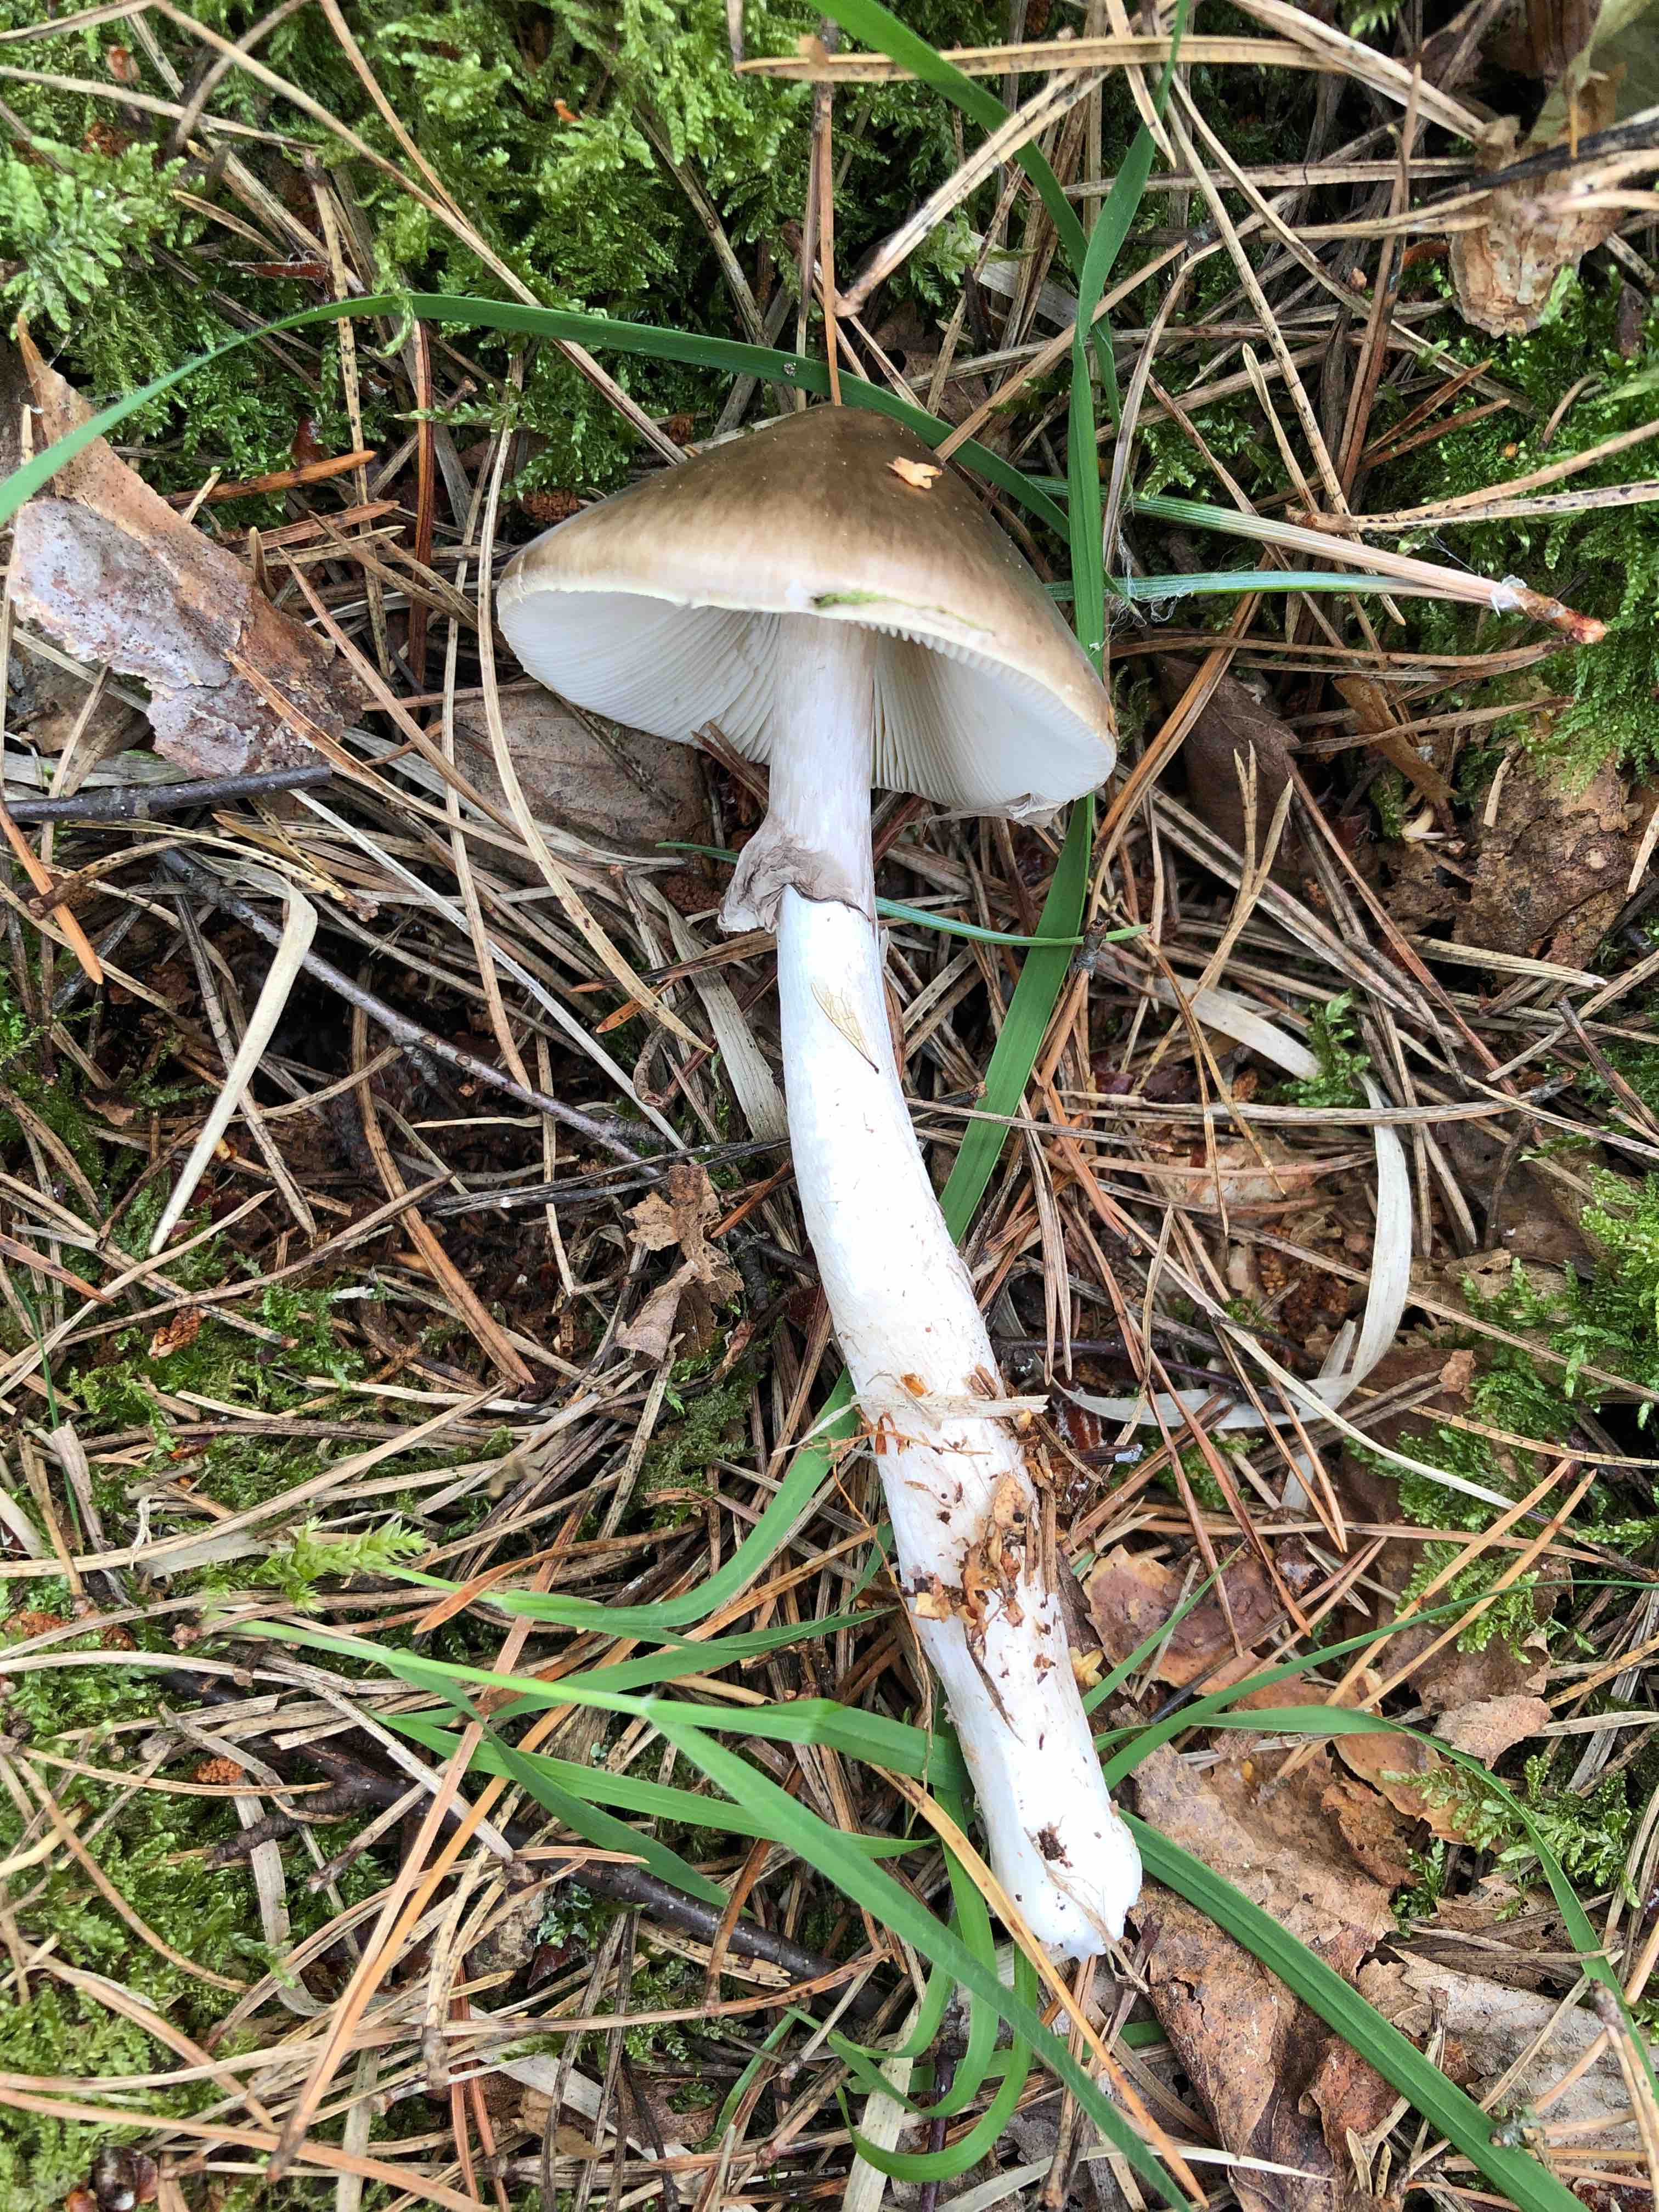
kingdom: Fungi
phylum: Basidiomycota
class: Agaricomycetes
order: Agaricales
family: Amanitaceae
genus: Amanita
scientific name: Amanita porphyria
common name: porfyr-fluesvamp
